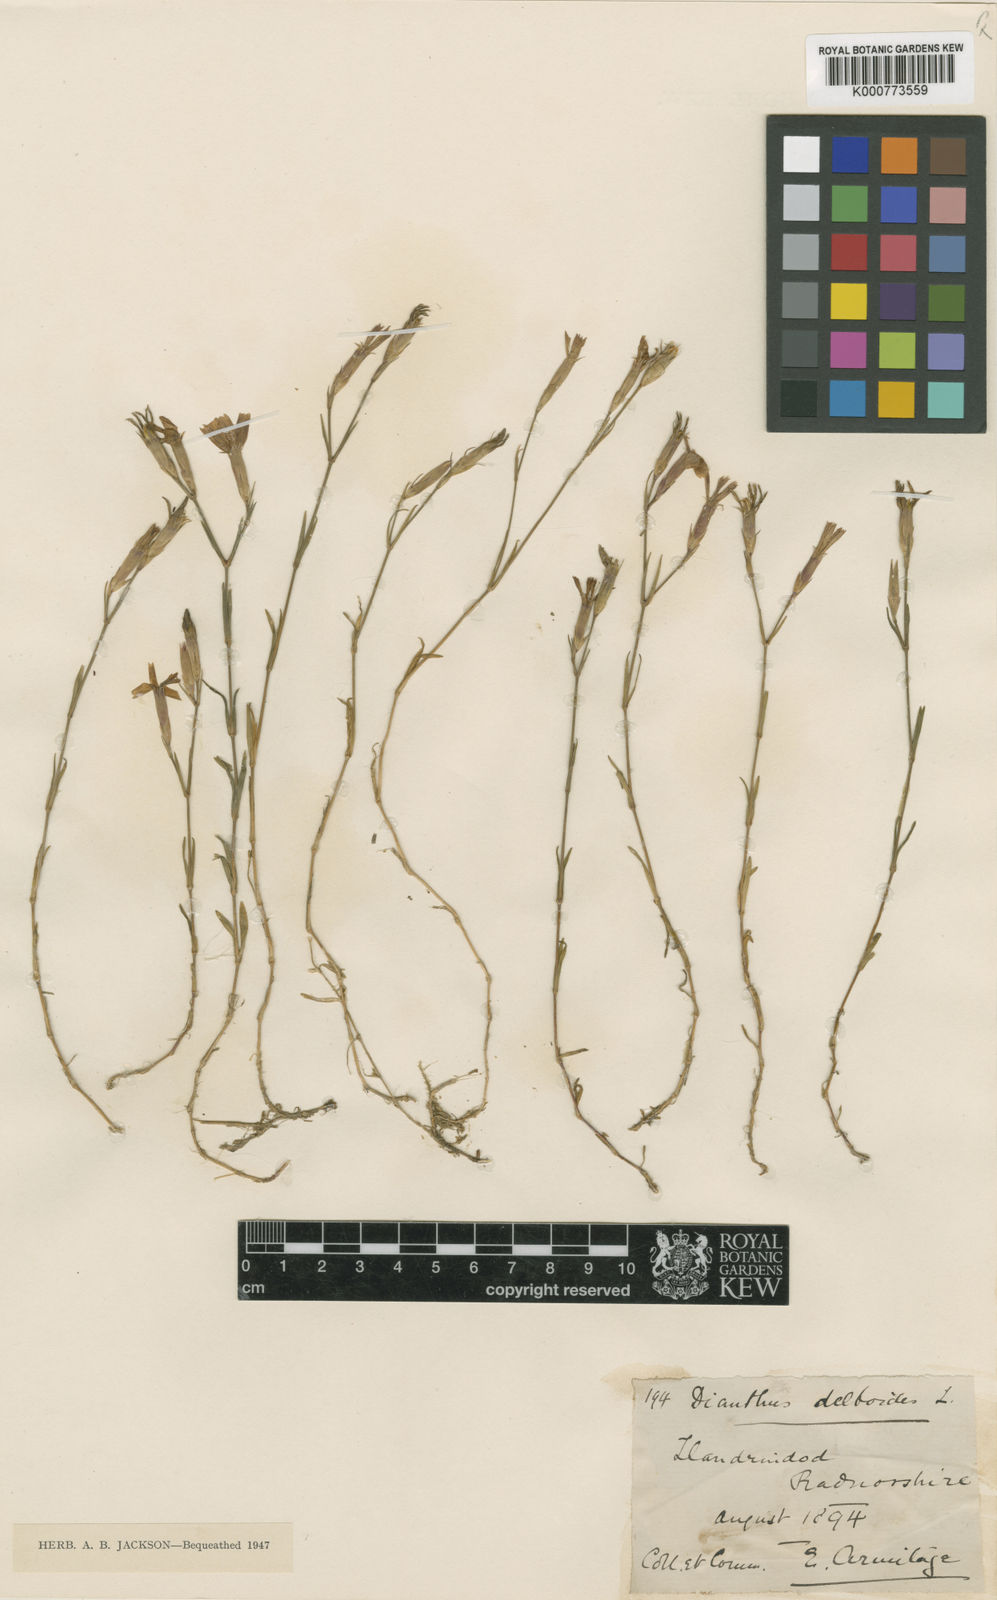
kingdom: Plantae
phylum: Tracheophyta
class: Magnoliopsida
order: Caryophyllales
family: Caryophyllaceae
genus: Dianthus
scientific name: Dianthus deltoides
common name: Maiden pink
